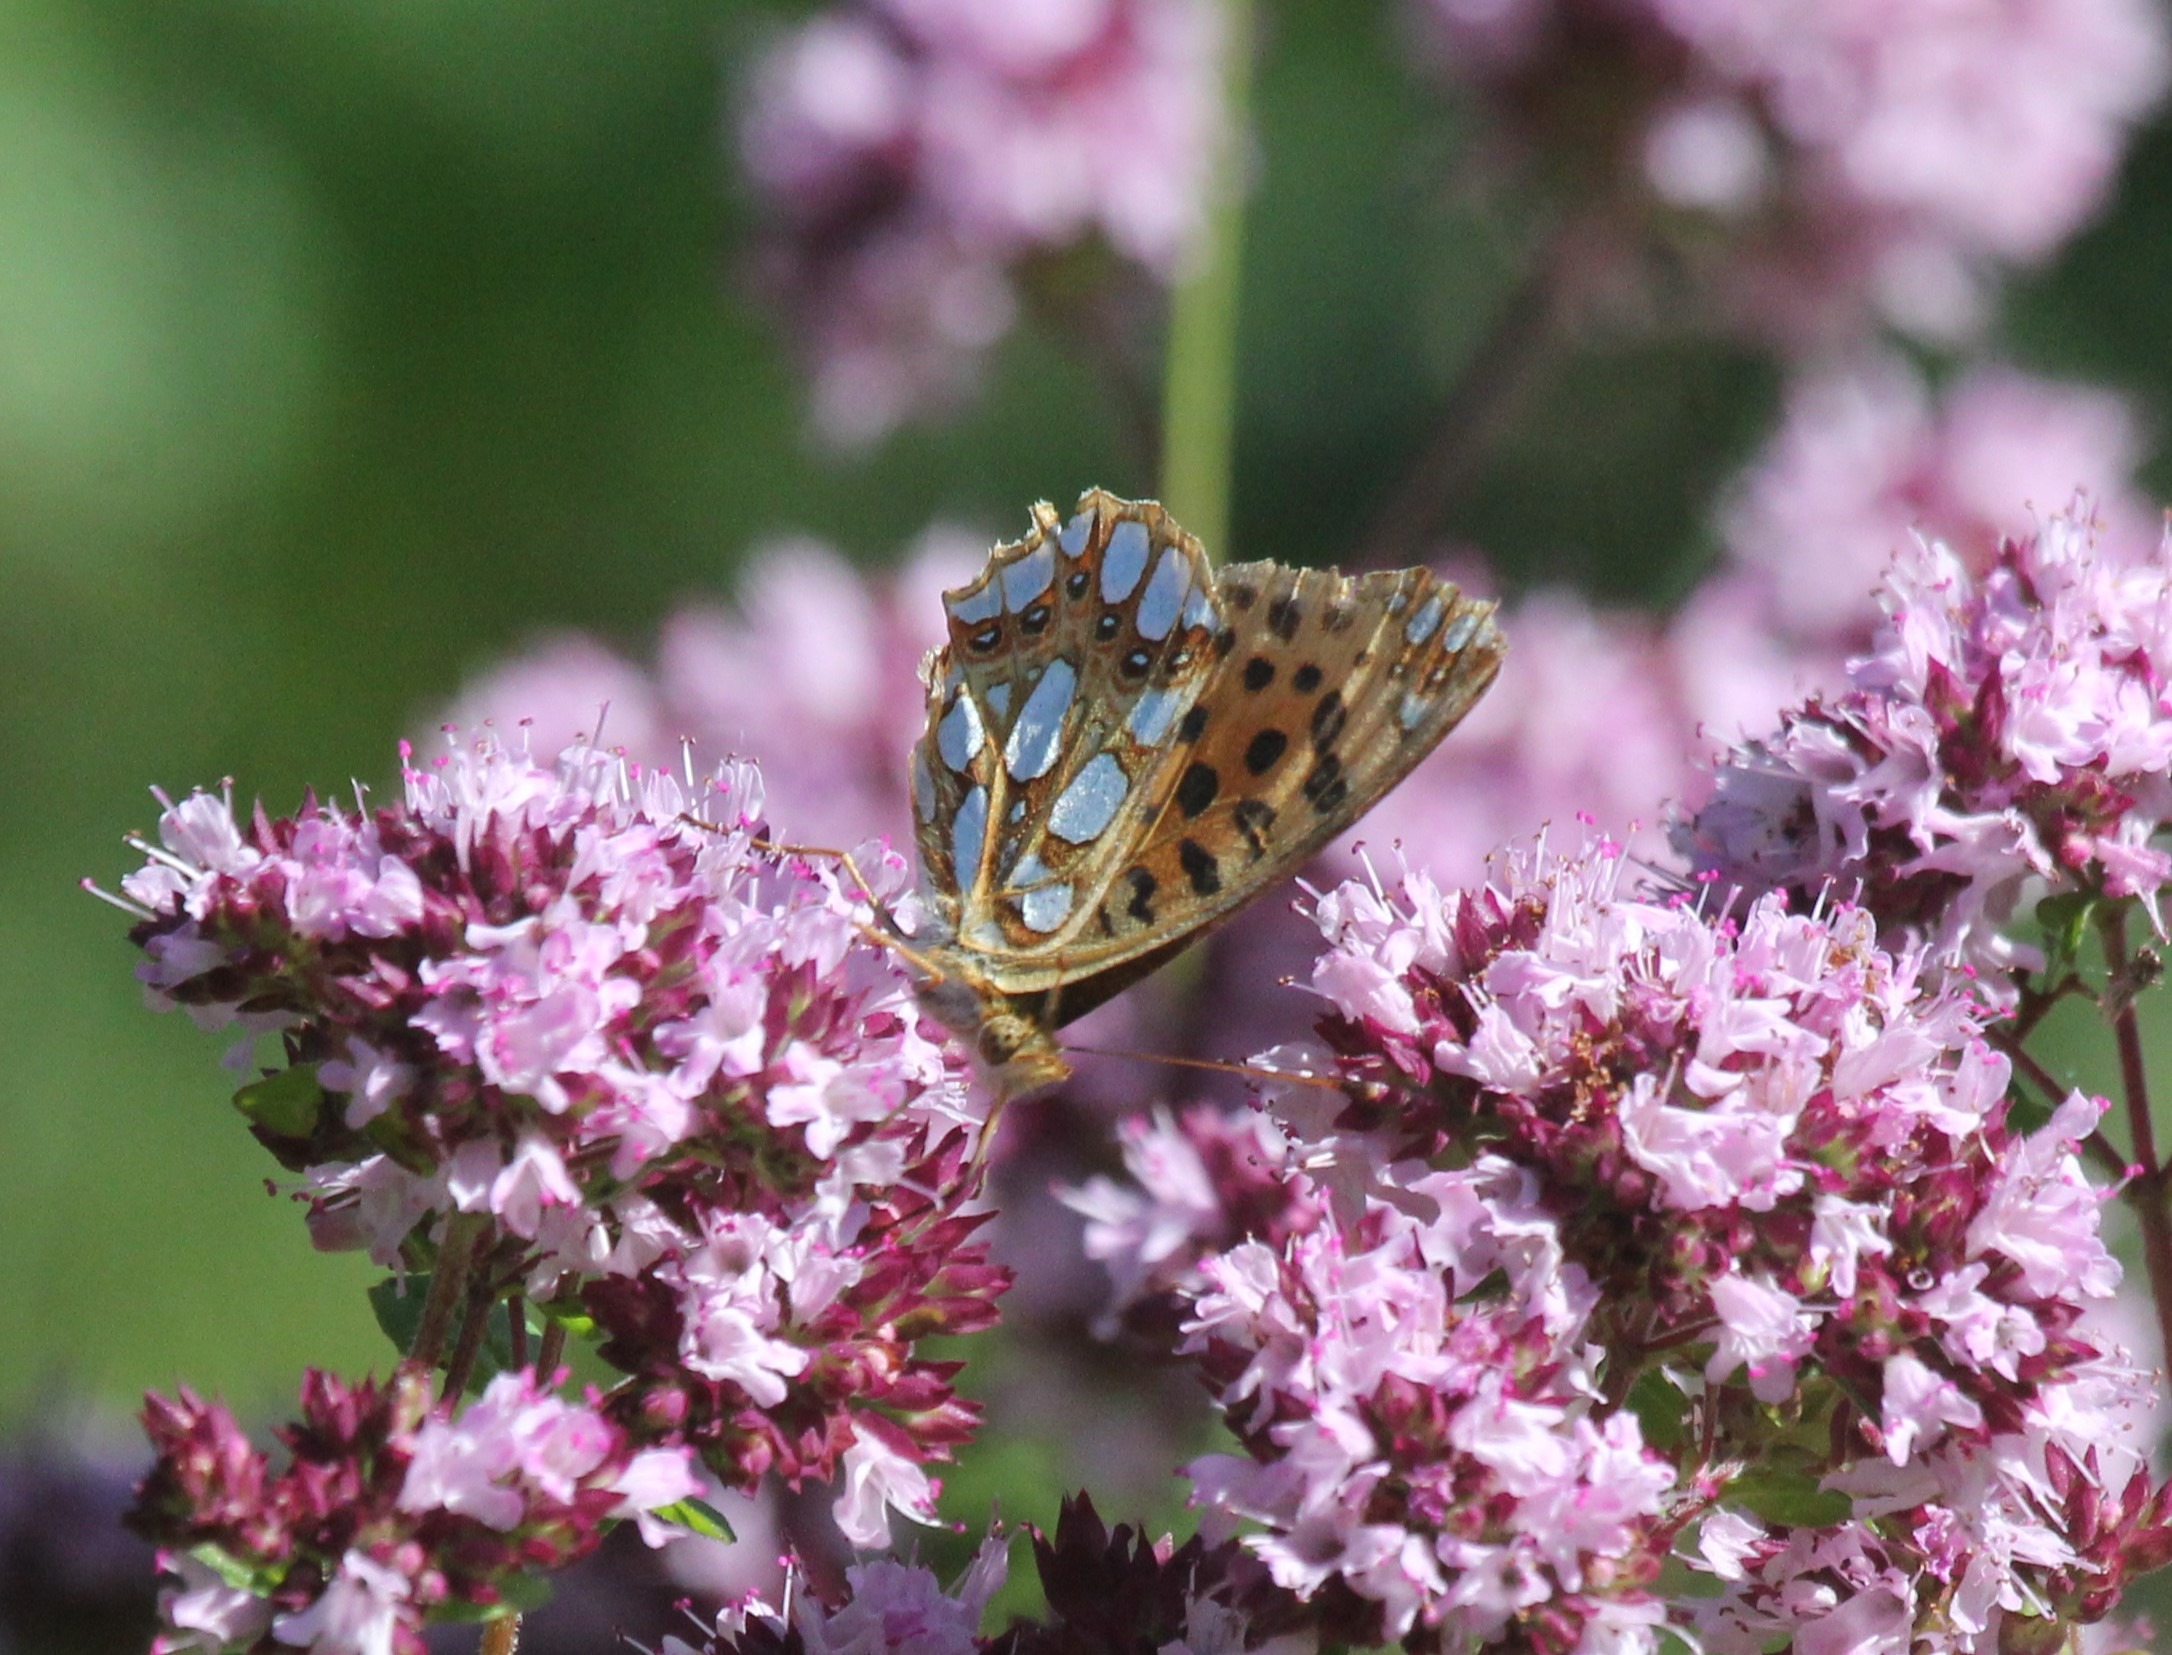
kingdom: Animalia
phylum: Arthropoda
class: Insecta
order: Lepidoptera
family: Nymphalidae
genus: Issoria
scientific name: Issoria lathonia
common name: Storplettet perlemorsommerfugl
